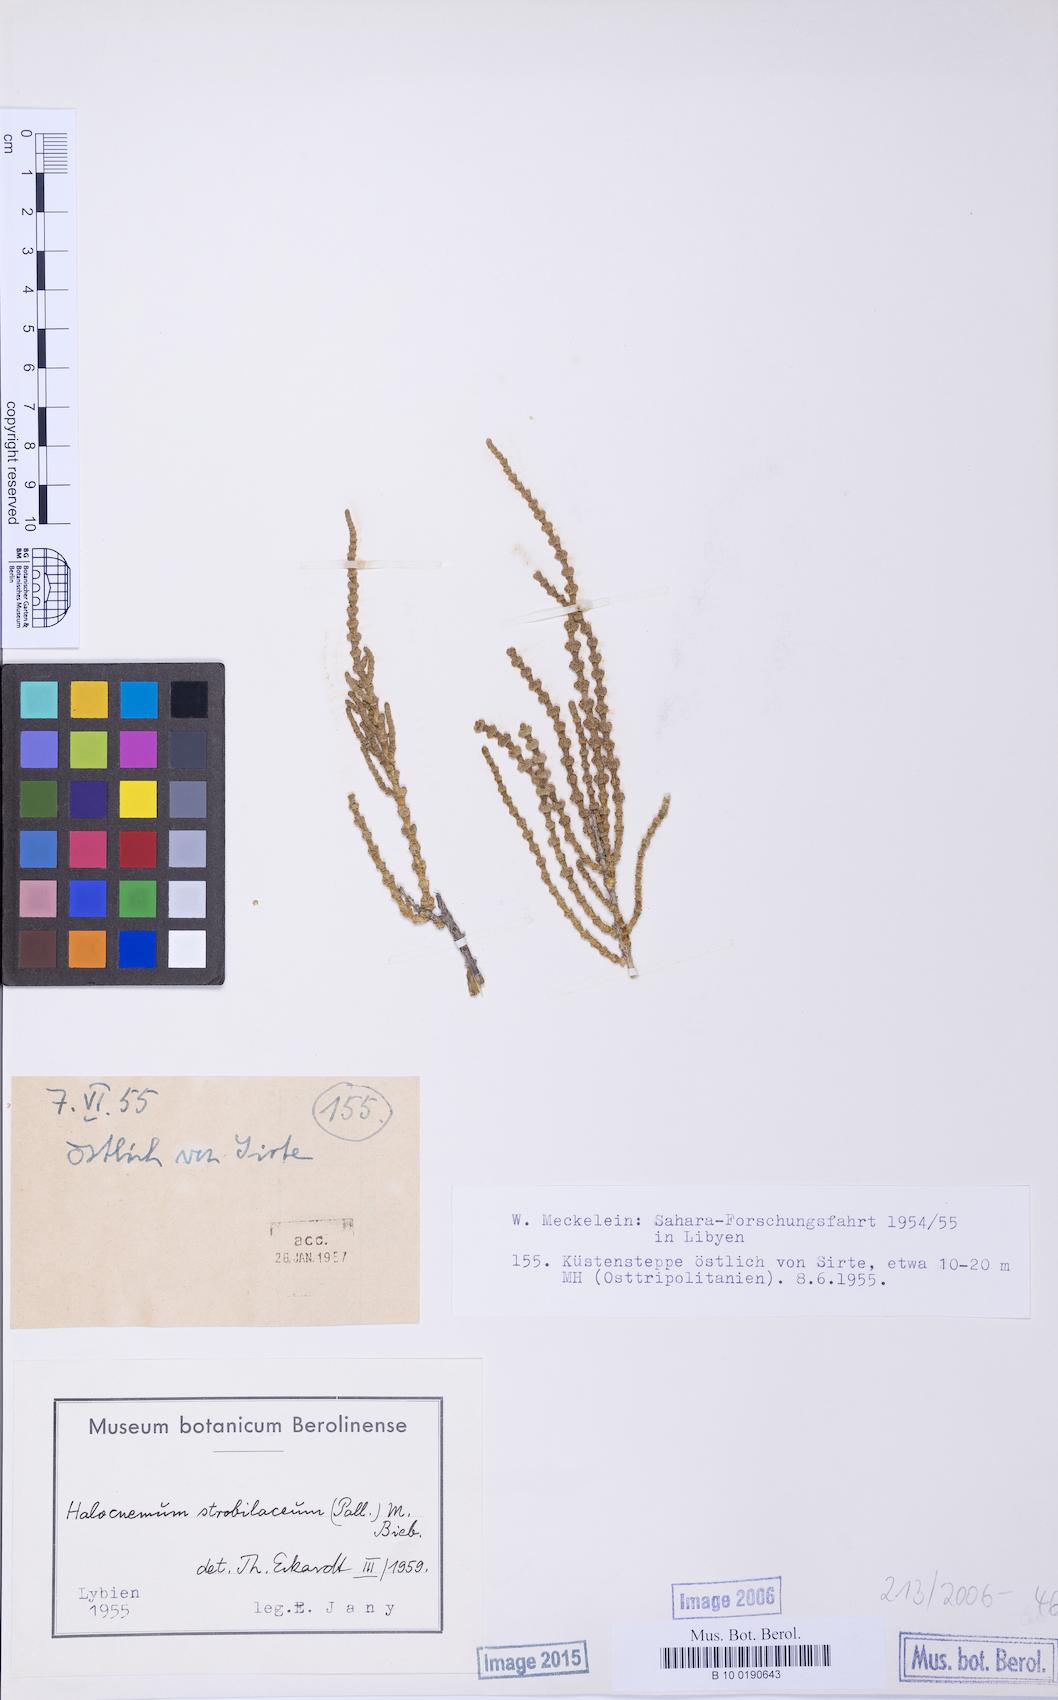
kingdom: Plantae
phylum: Tracheophyta
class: Magnoliopsida
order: Caryophyllales
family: Amaranthaceae
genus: Halocnemum
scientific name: Halocnemum strobilaceum
